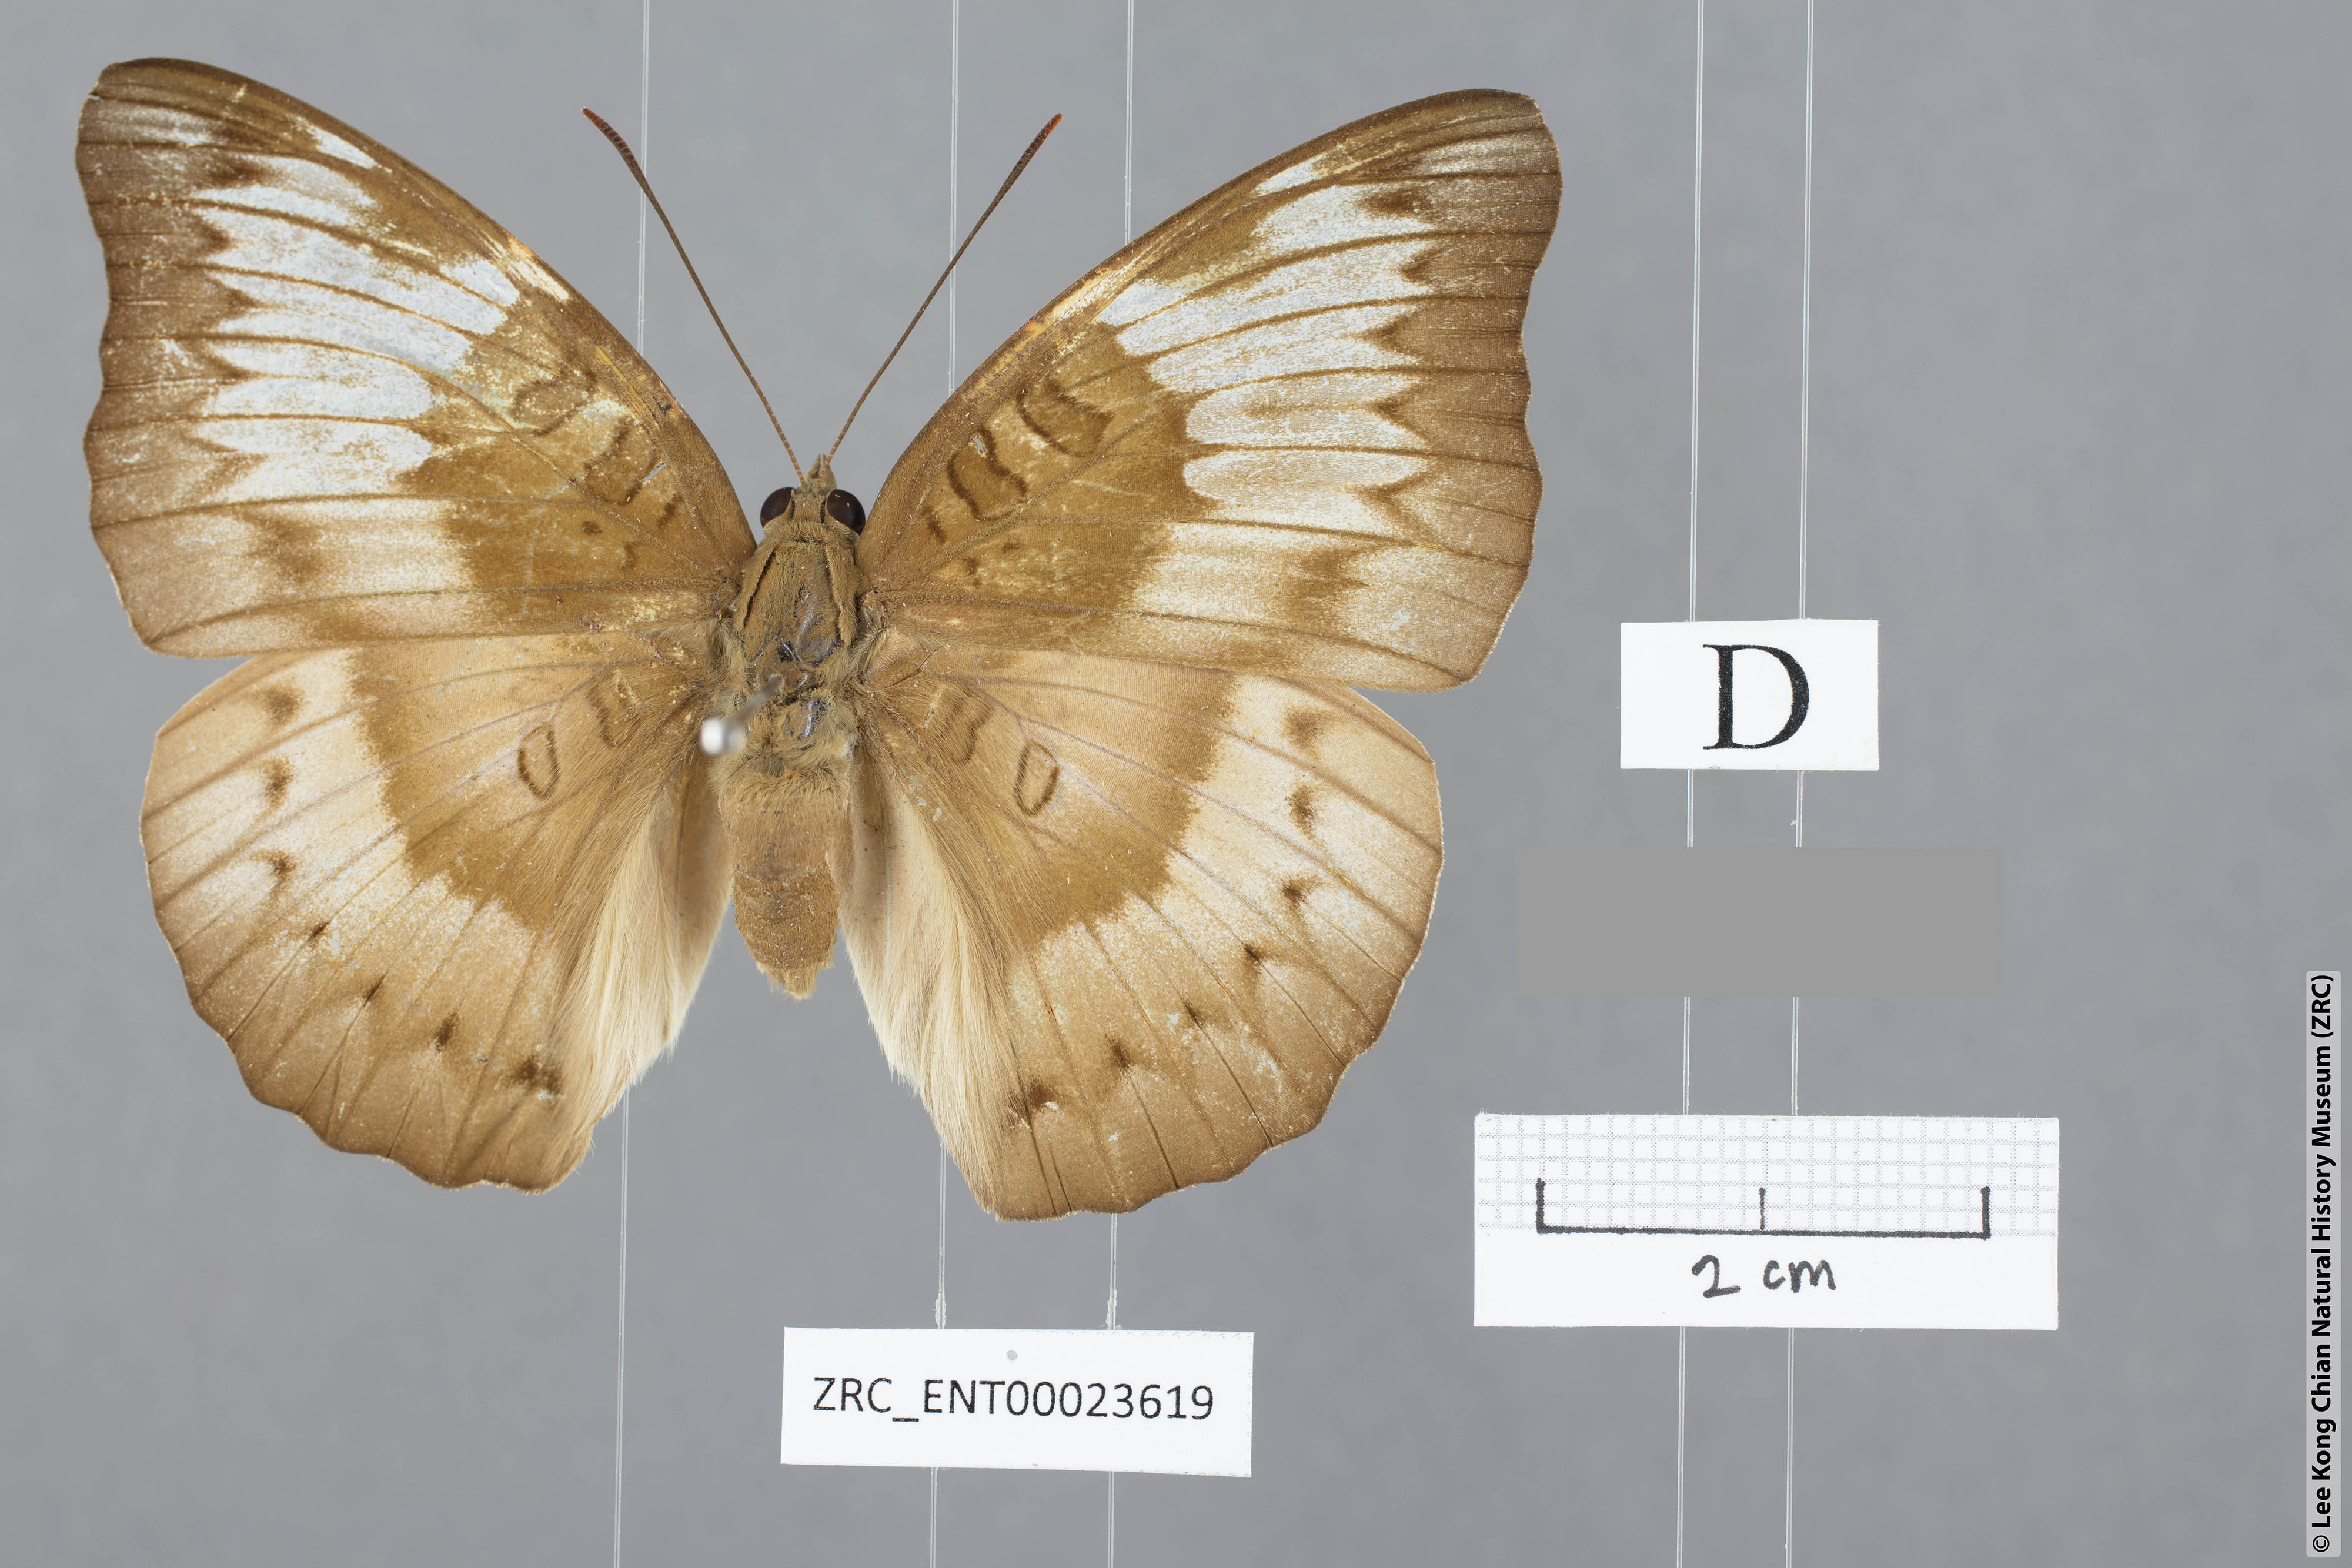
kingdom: Animalia
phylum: Arthropoda
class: Insecta
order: Lepidoptera
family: Nymphalidae
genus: Euthalia
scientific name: Euthalia alpheda
